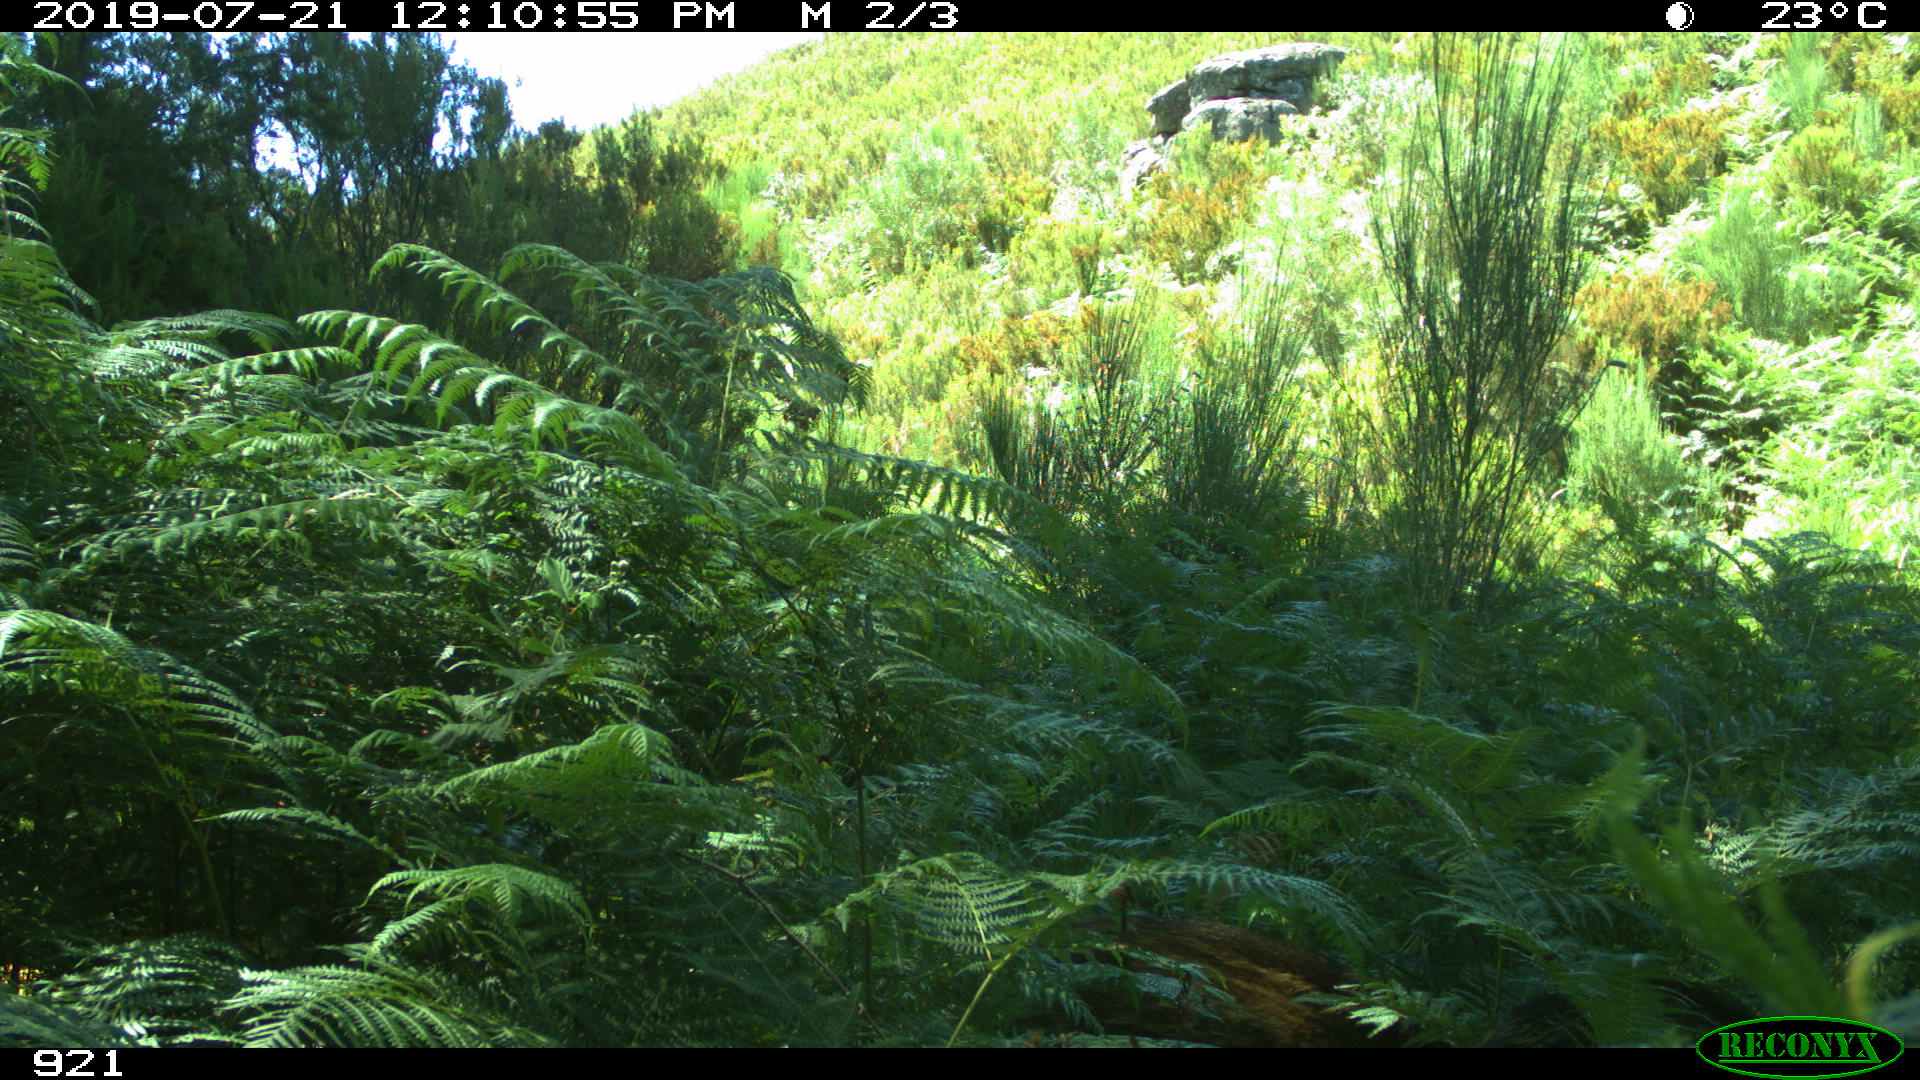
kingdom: Animalia
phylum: Chordata
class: Mammalia
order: Artiodactyla
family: Suidae
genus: Sus
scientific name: Sus scrofa
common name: Wild boar
